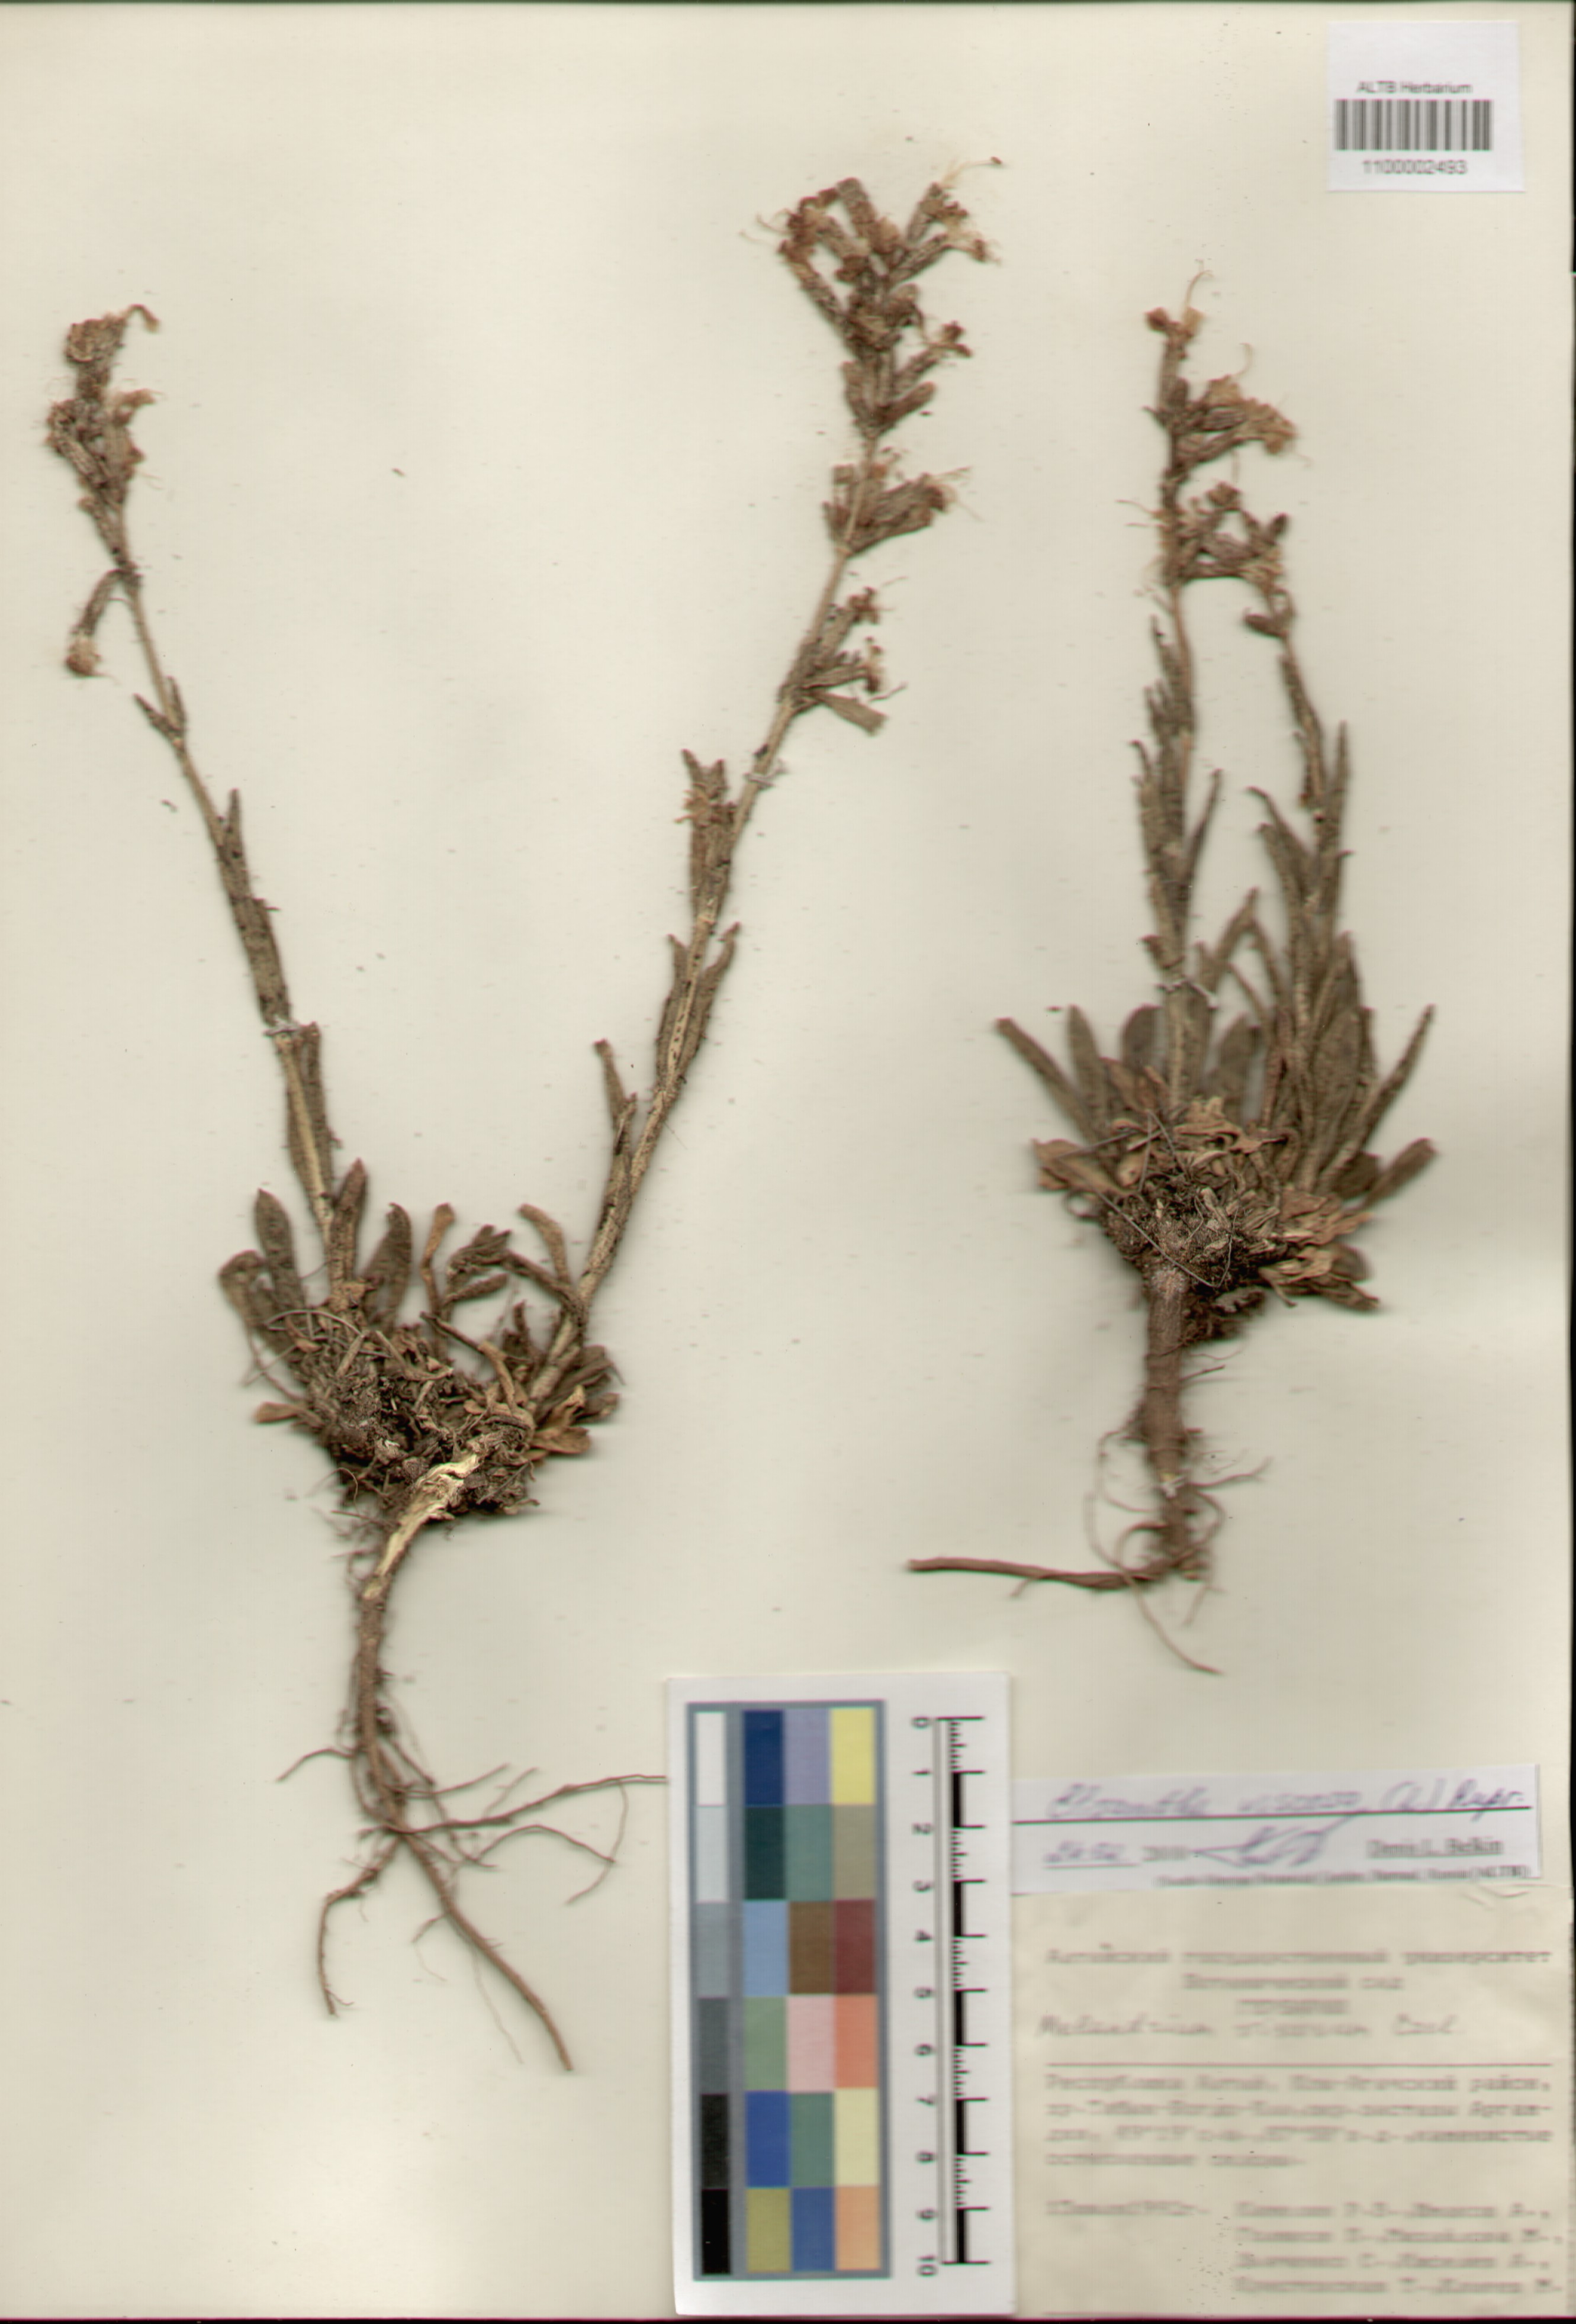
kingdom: Plantae
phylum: Tracheophyta
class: Magnoliopsida
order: Caryophyllales
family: Caryophyllaceae
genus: Silene
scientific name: Silene viscosa
